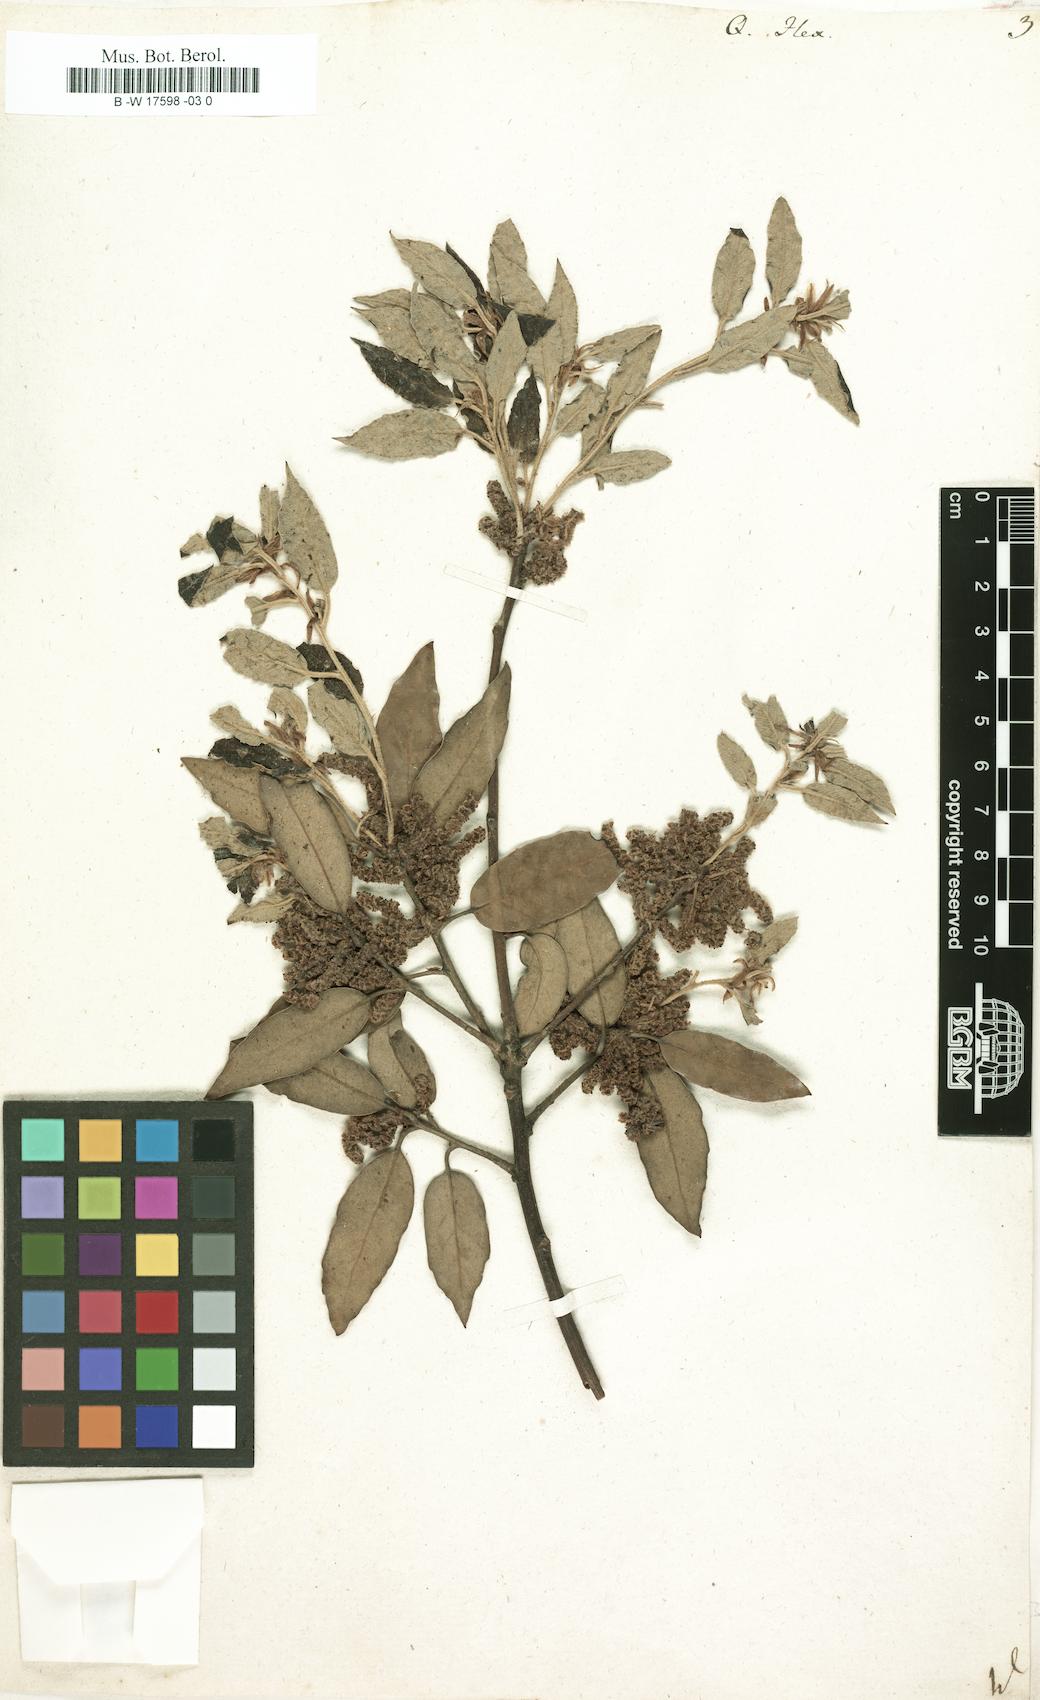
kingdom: Plantae
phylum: Tracheophyta
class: Magnoliopsida
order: Fagales
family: Fagaceae
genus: Quercus
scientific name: Quercus ilex
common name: Evergreen oak
